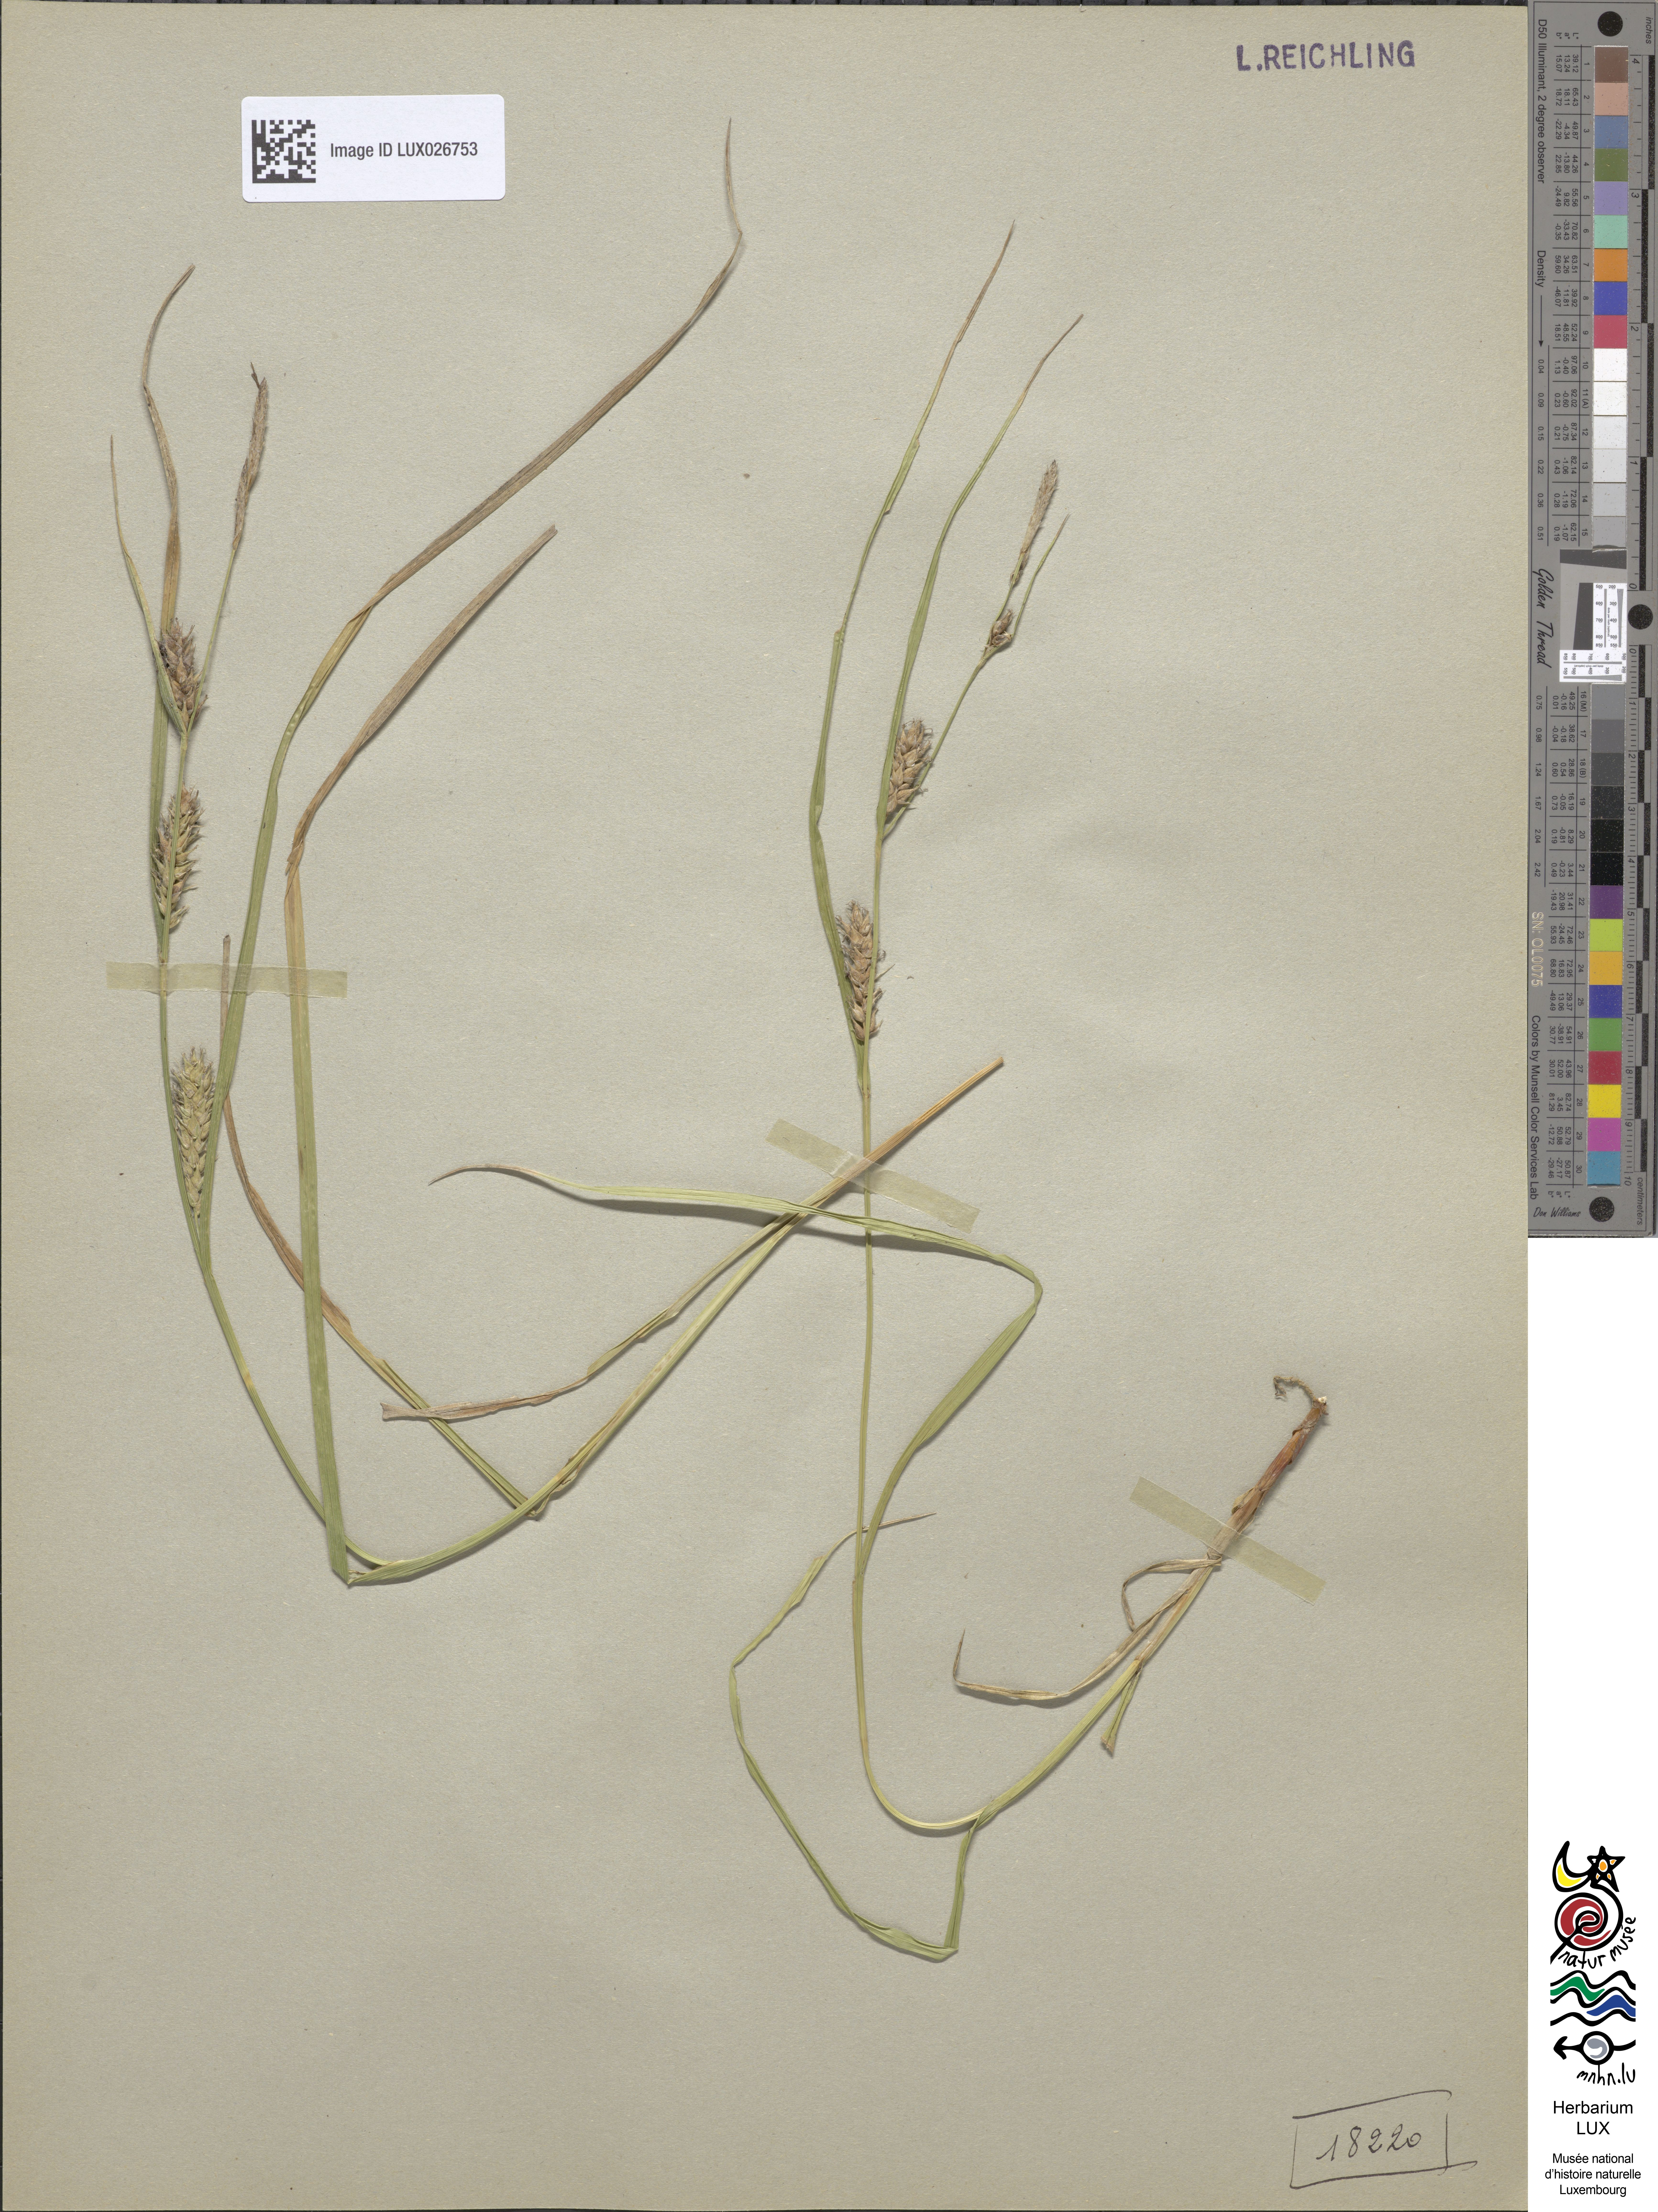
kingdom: Plantae
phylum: Tracheophyta
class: Liliopsida
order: Poales
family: Cyperaceae
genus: Carex
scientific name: Carex hirta
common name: Hairy sedge
